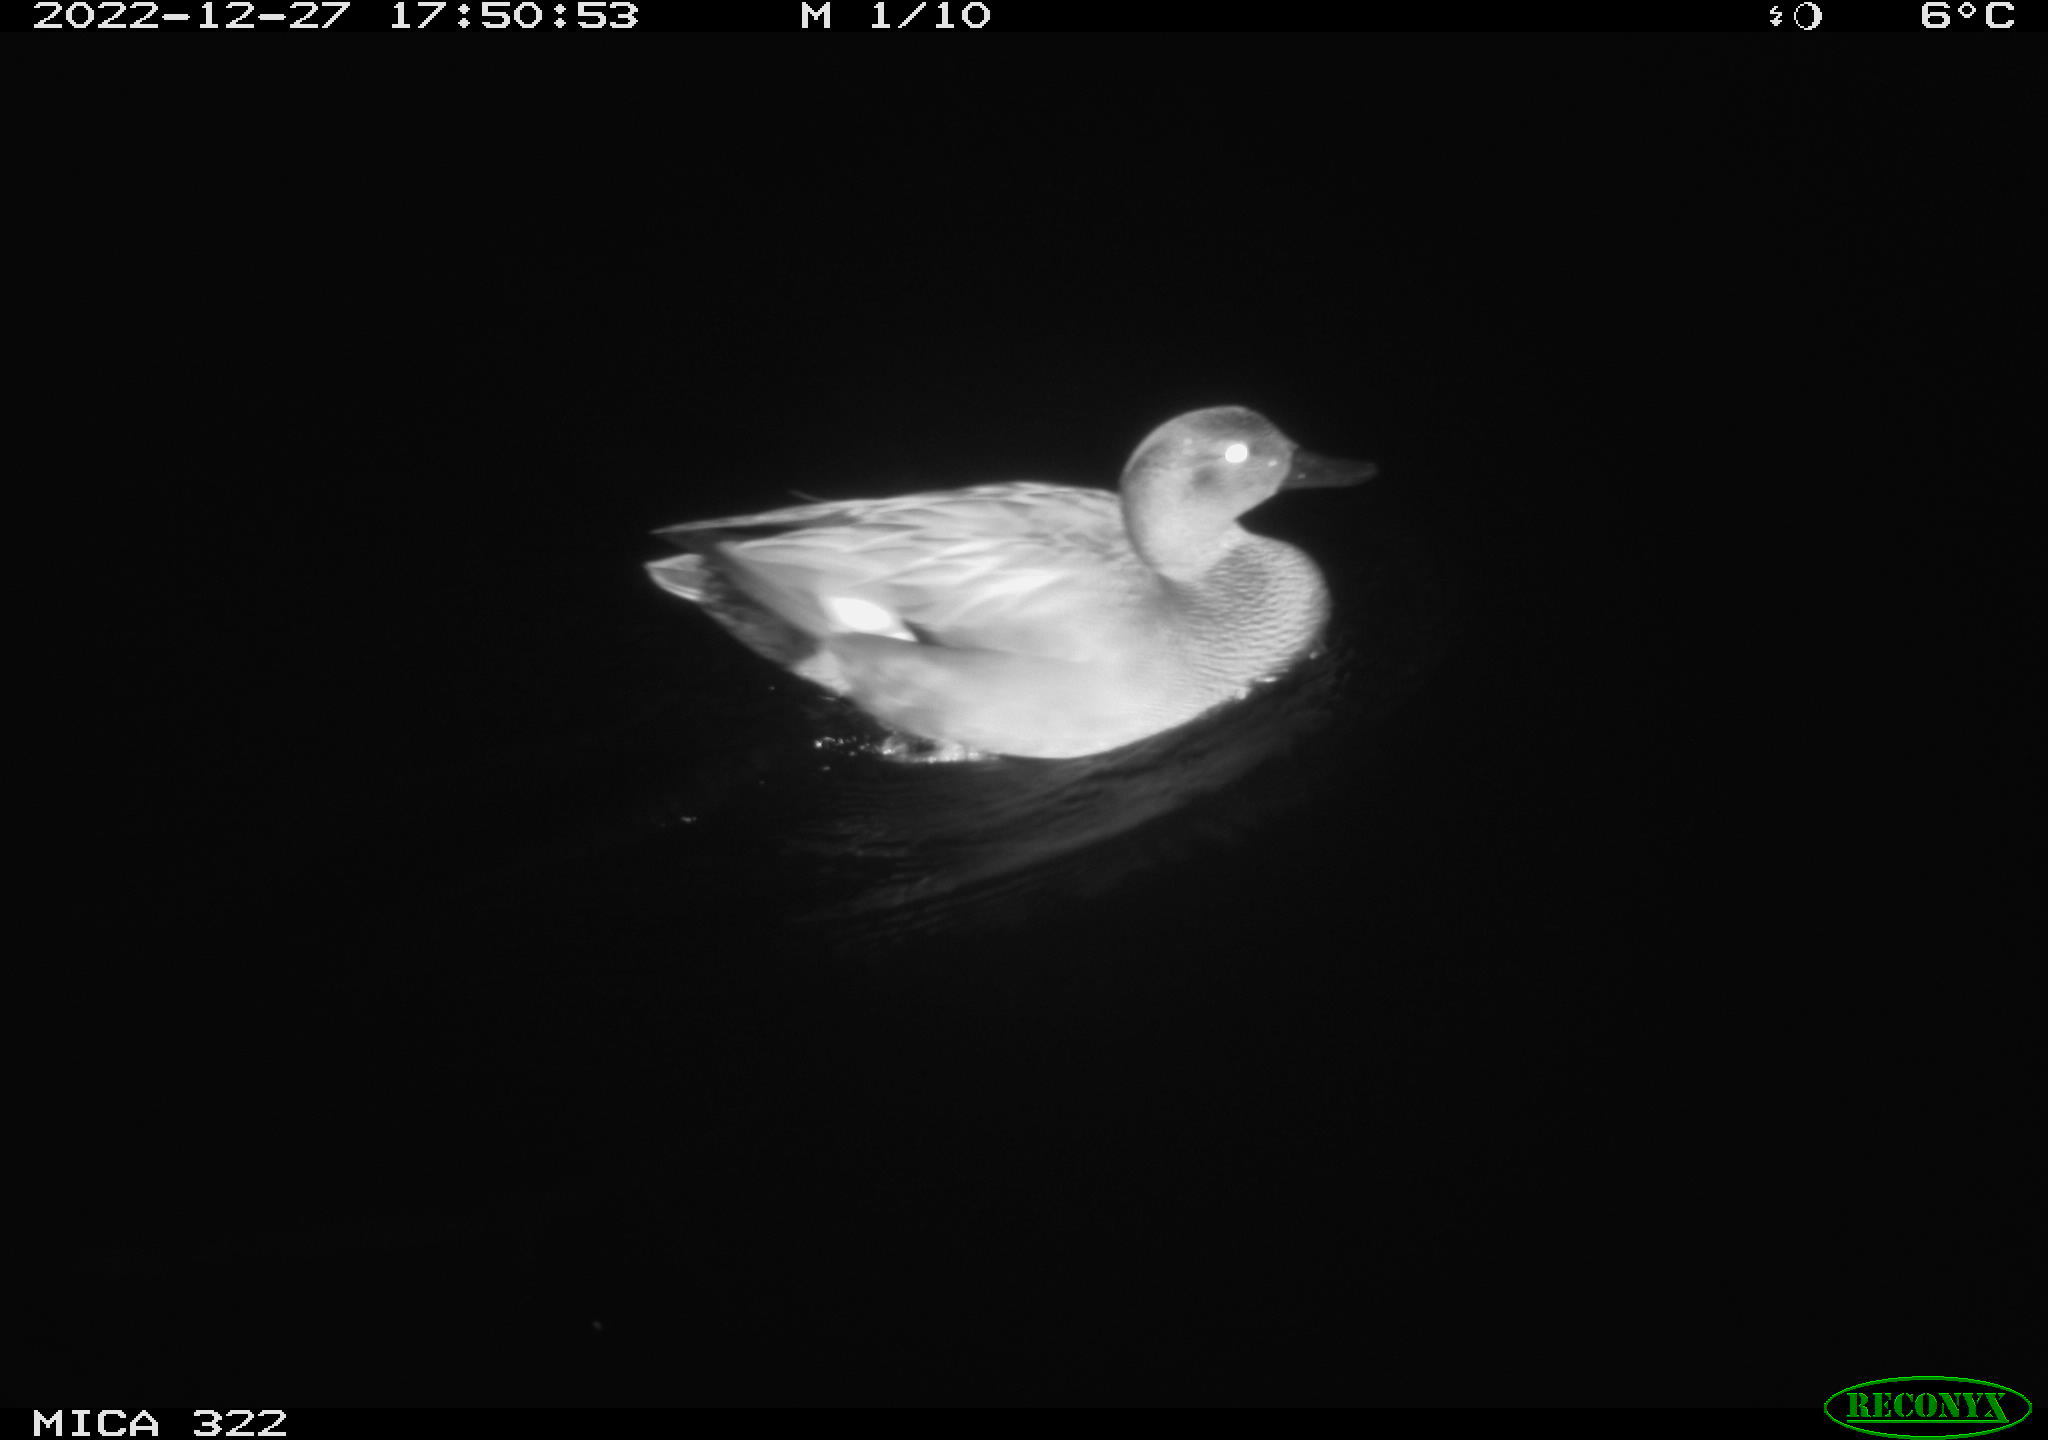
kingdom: Animalia
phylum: Chordata
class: Aves
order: Anseriformes
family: Anatidae
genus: Anas
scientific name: Anas
